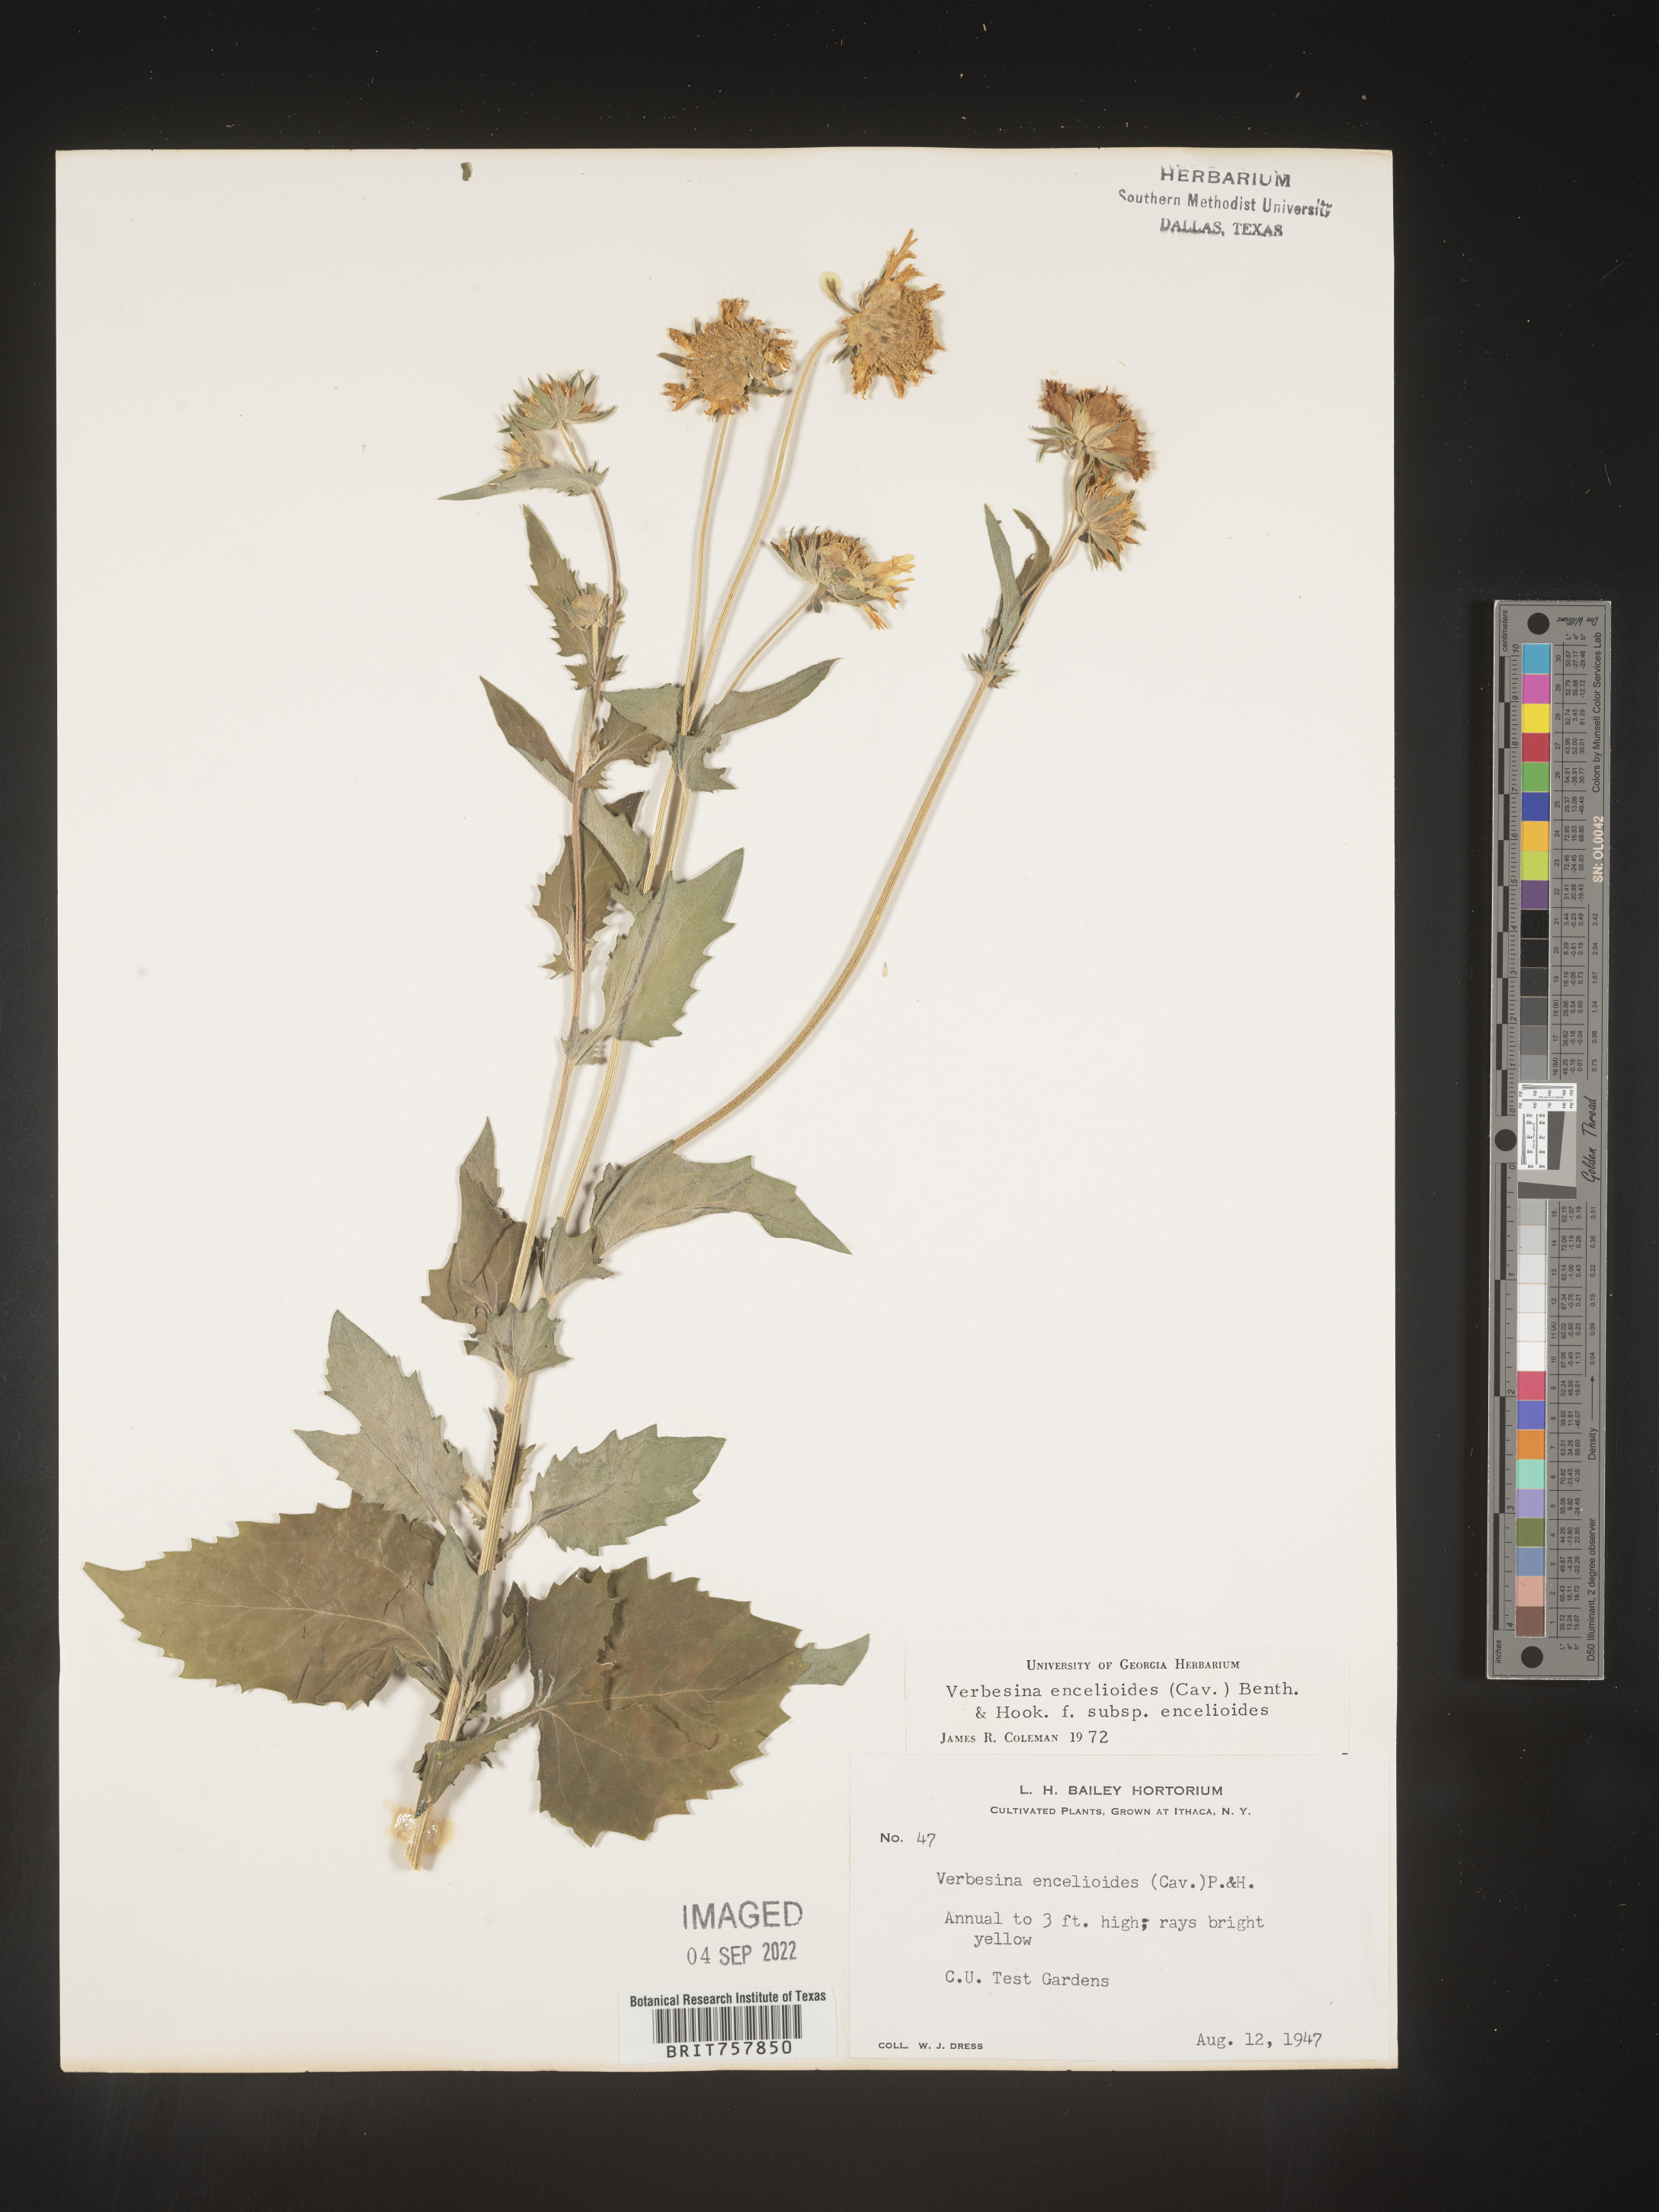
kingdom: Plantae
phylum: Tracheophyta
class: Magnoliopsida
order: Asterales
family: Asteraceae
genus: Verbesina
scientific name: Verbesina
